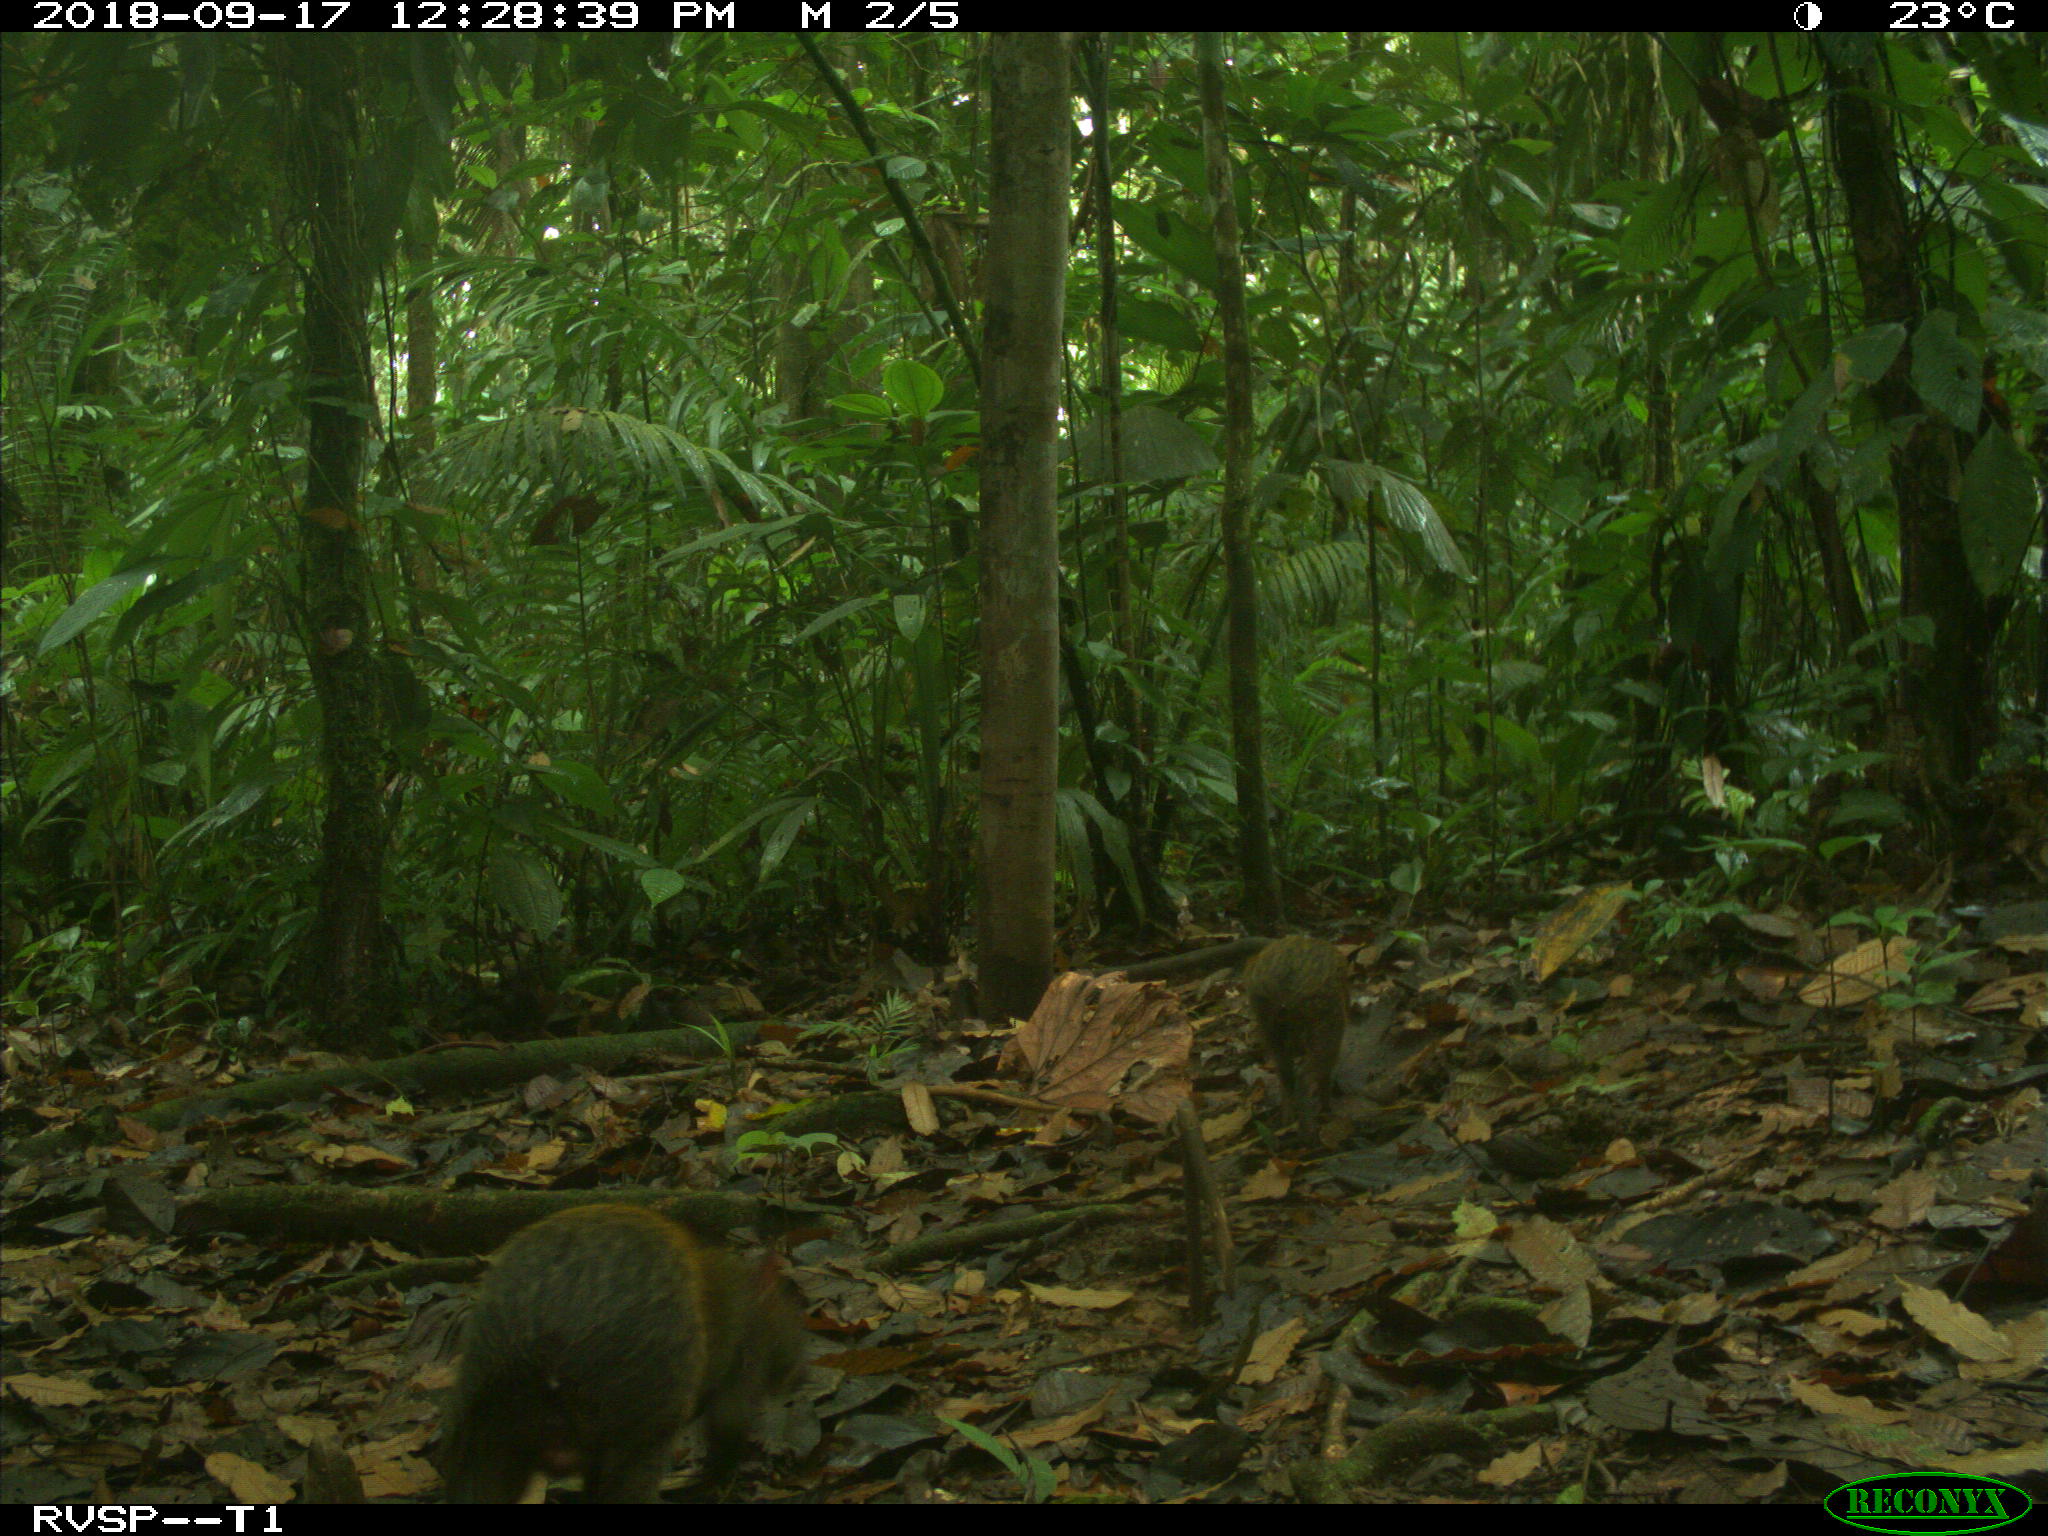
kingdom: Animalia
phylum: Chordata
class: Mammalia
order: Rodentia
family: Dasyproctidae
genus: Dasyprocta
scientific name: Dasyprocta punctata
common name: Central american agouti
